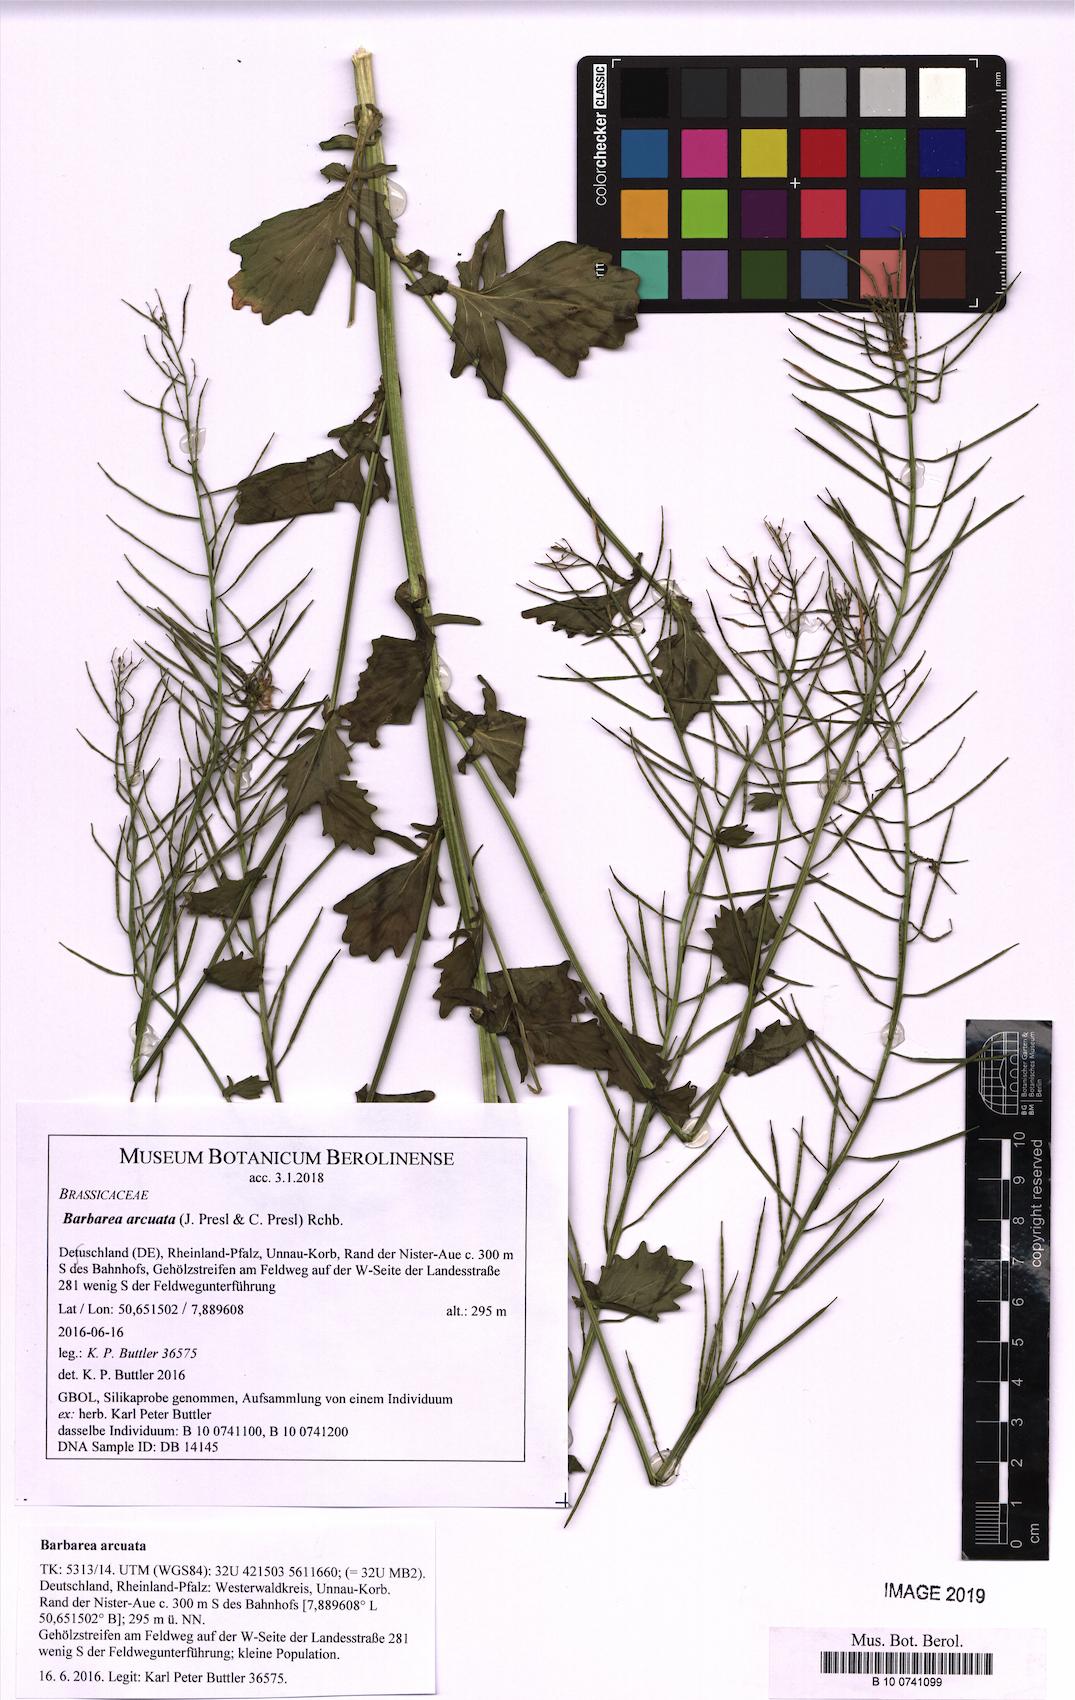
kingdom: Plantae
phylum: Tracheophyta
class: Magnoliopsida
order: Brassicales
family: Brassicaceae
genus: Barbarea
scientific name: Barbarea vulgaris
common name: Cressy-greens
